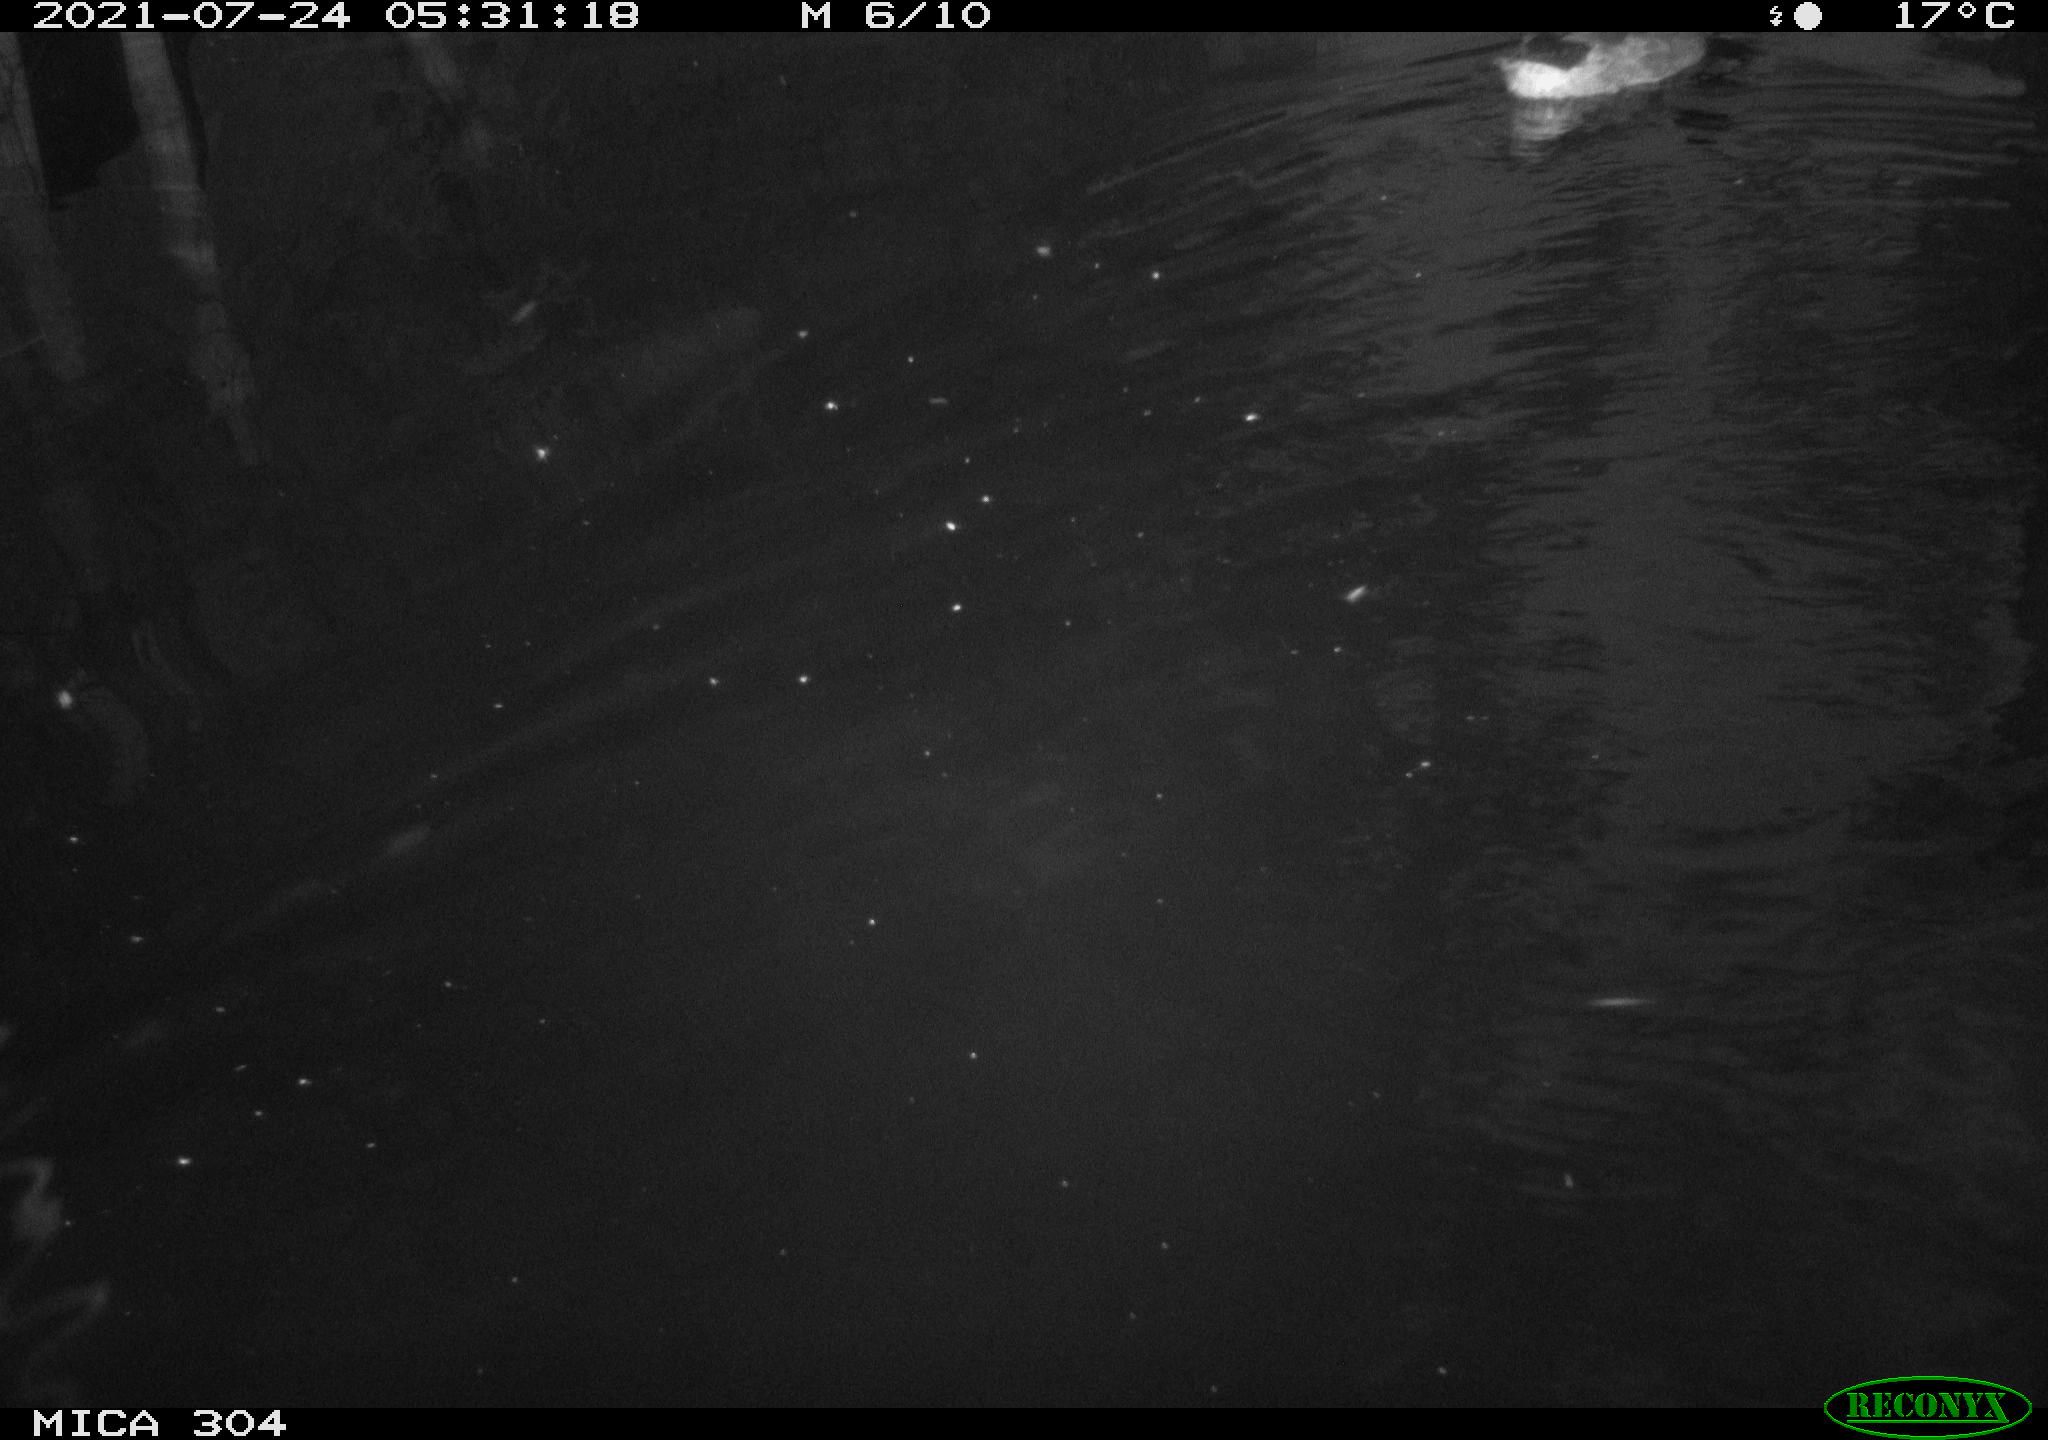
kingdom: Animalia
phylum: Chordata
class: Aves
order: Anseriformes
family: Anatidae
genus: Anas
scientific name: Anas platyrhynchos
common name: Mallard
